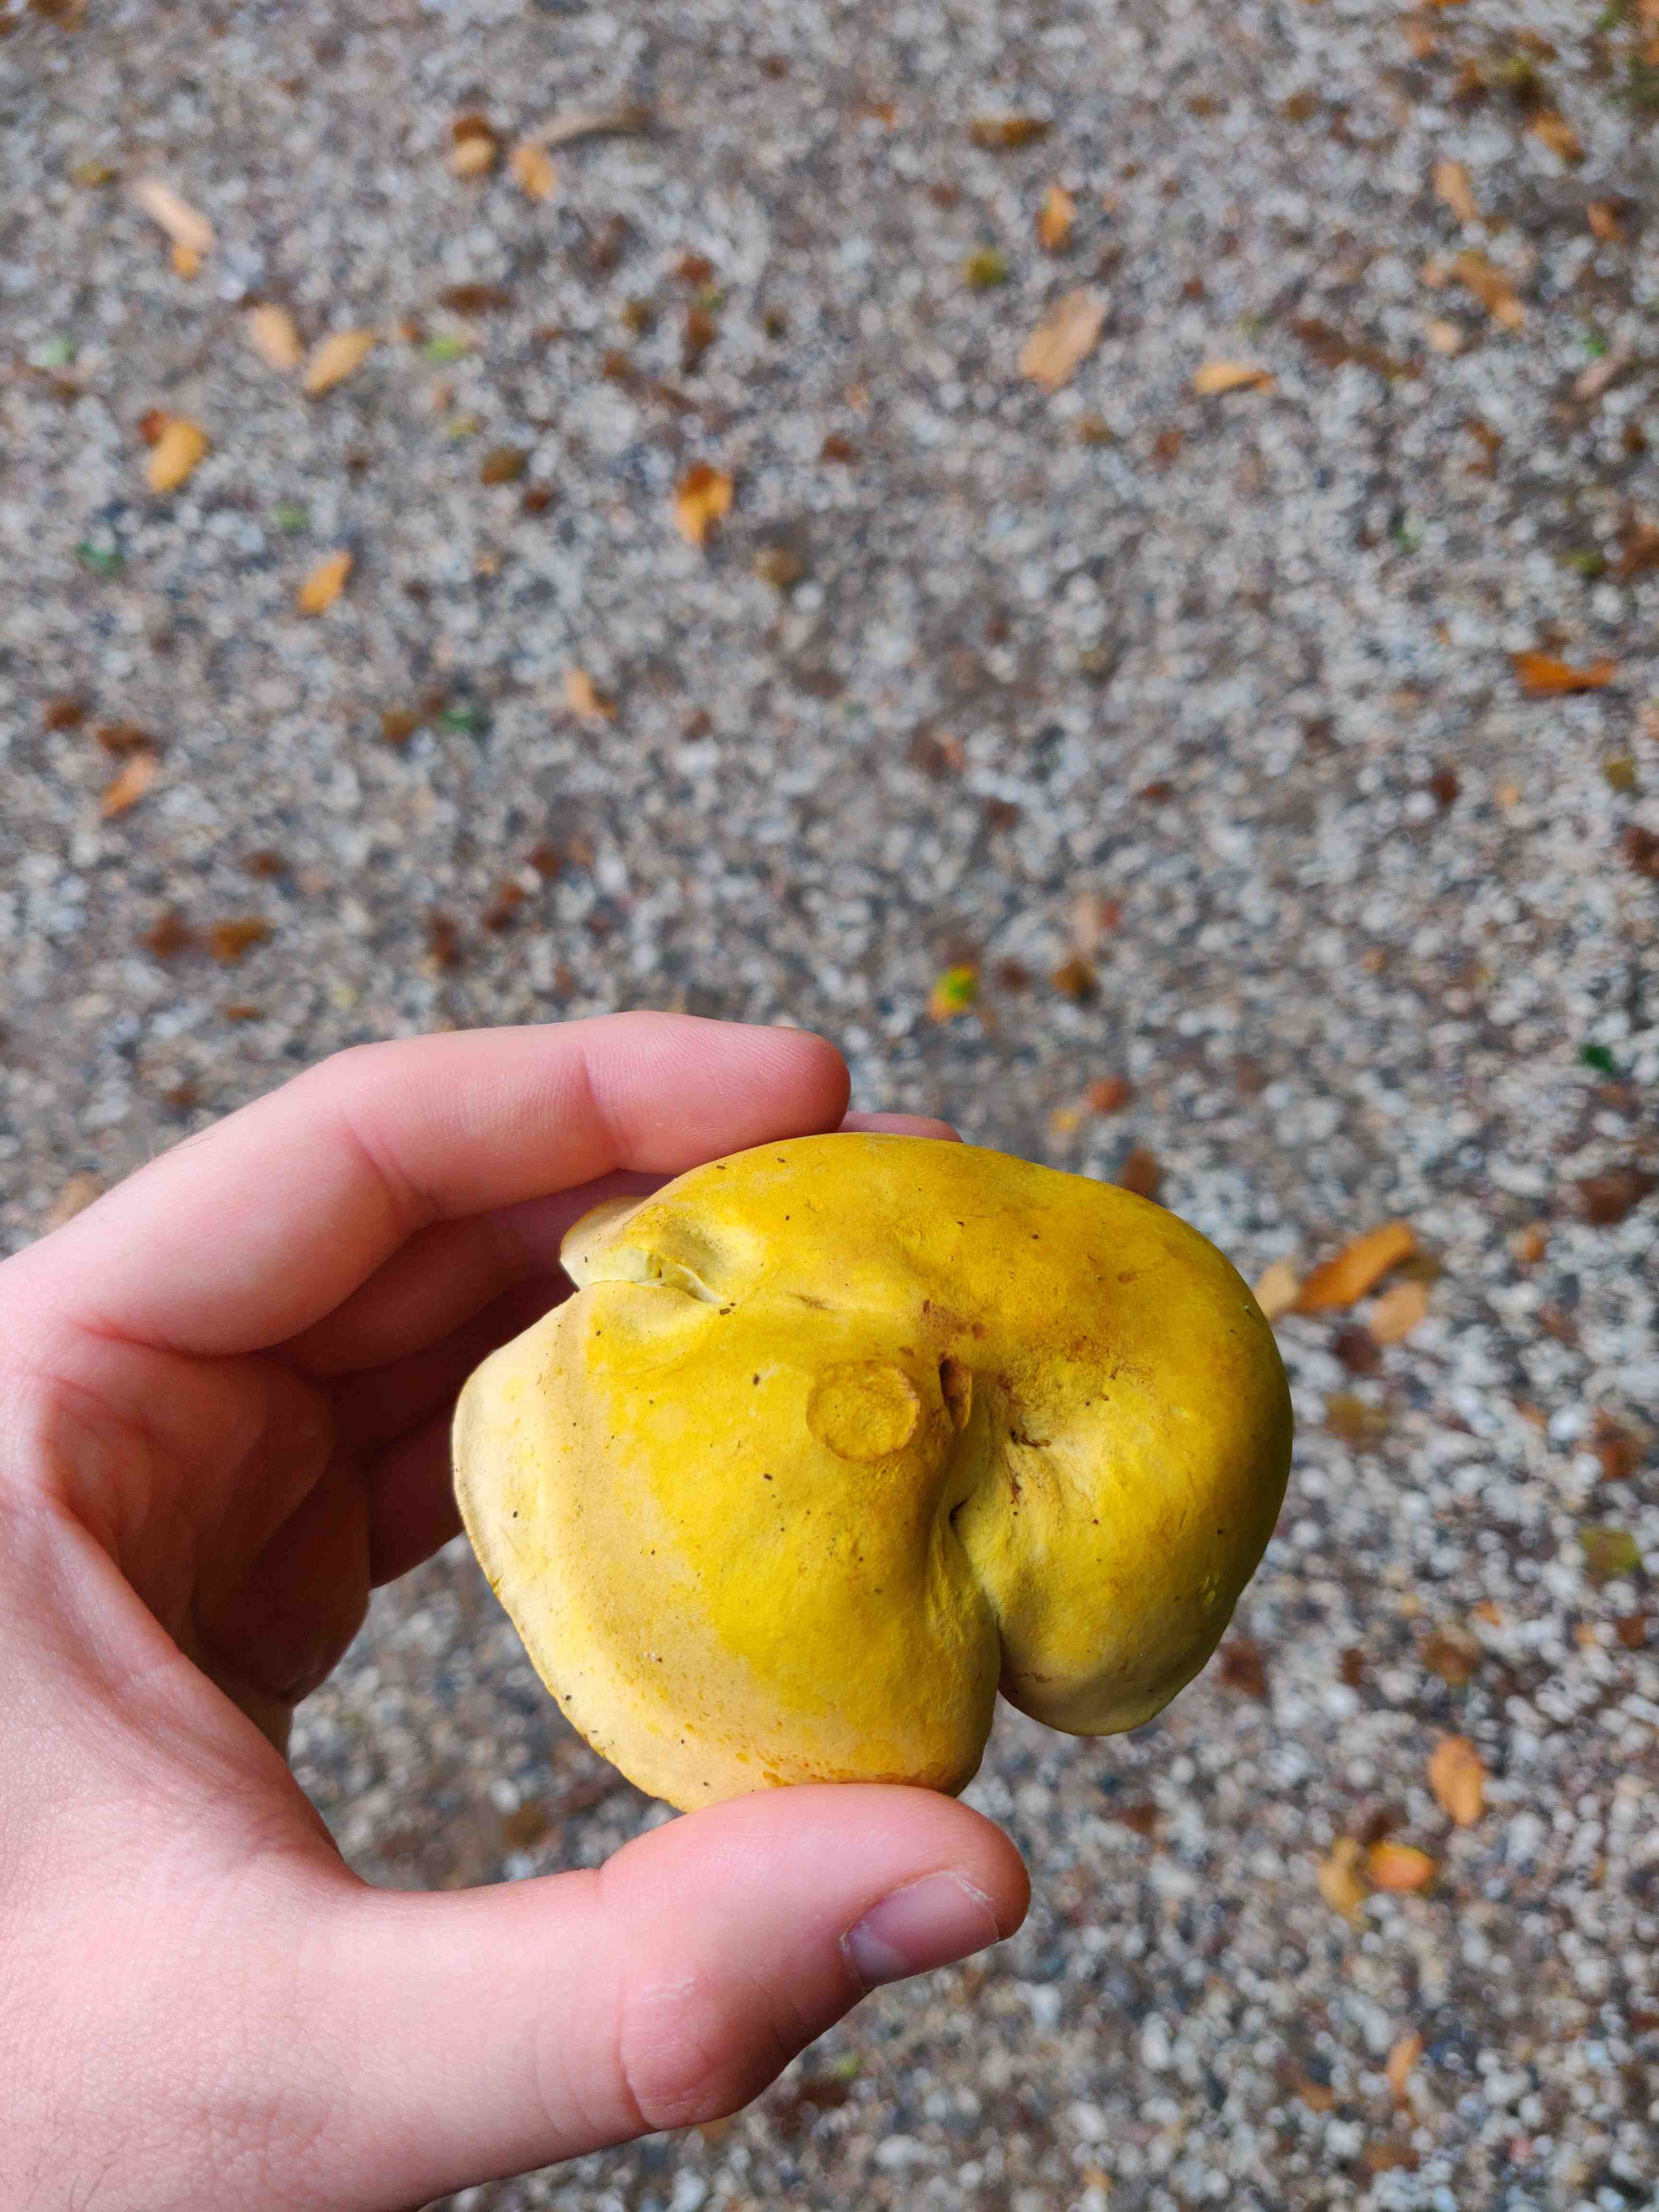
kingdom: Fungi
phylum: Basidiomycota
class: Agaricomycetes
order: Agaricales
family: Tricholomataceae
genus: Tricholoma
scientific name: Tricholoma sulphureum
